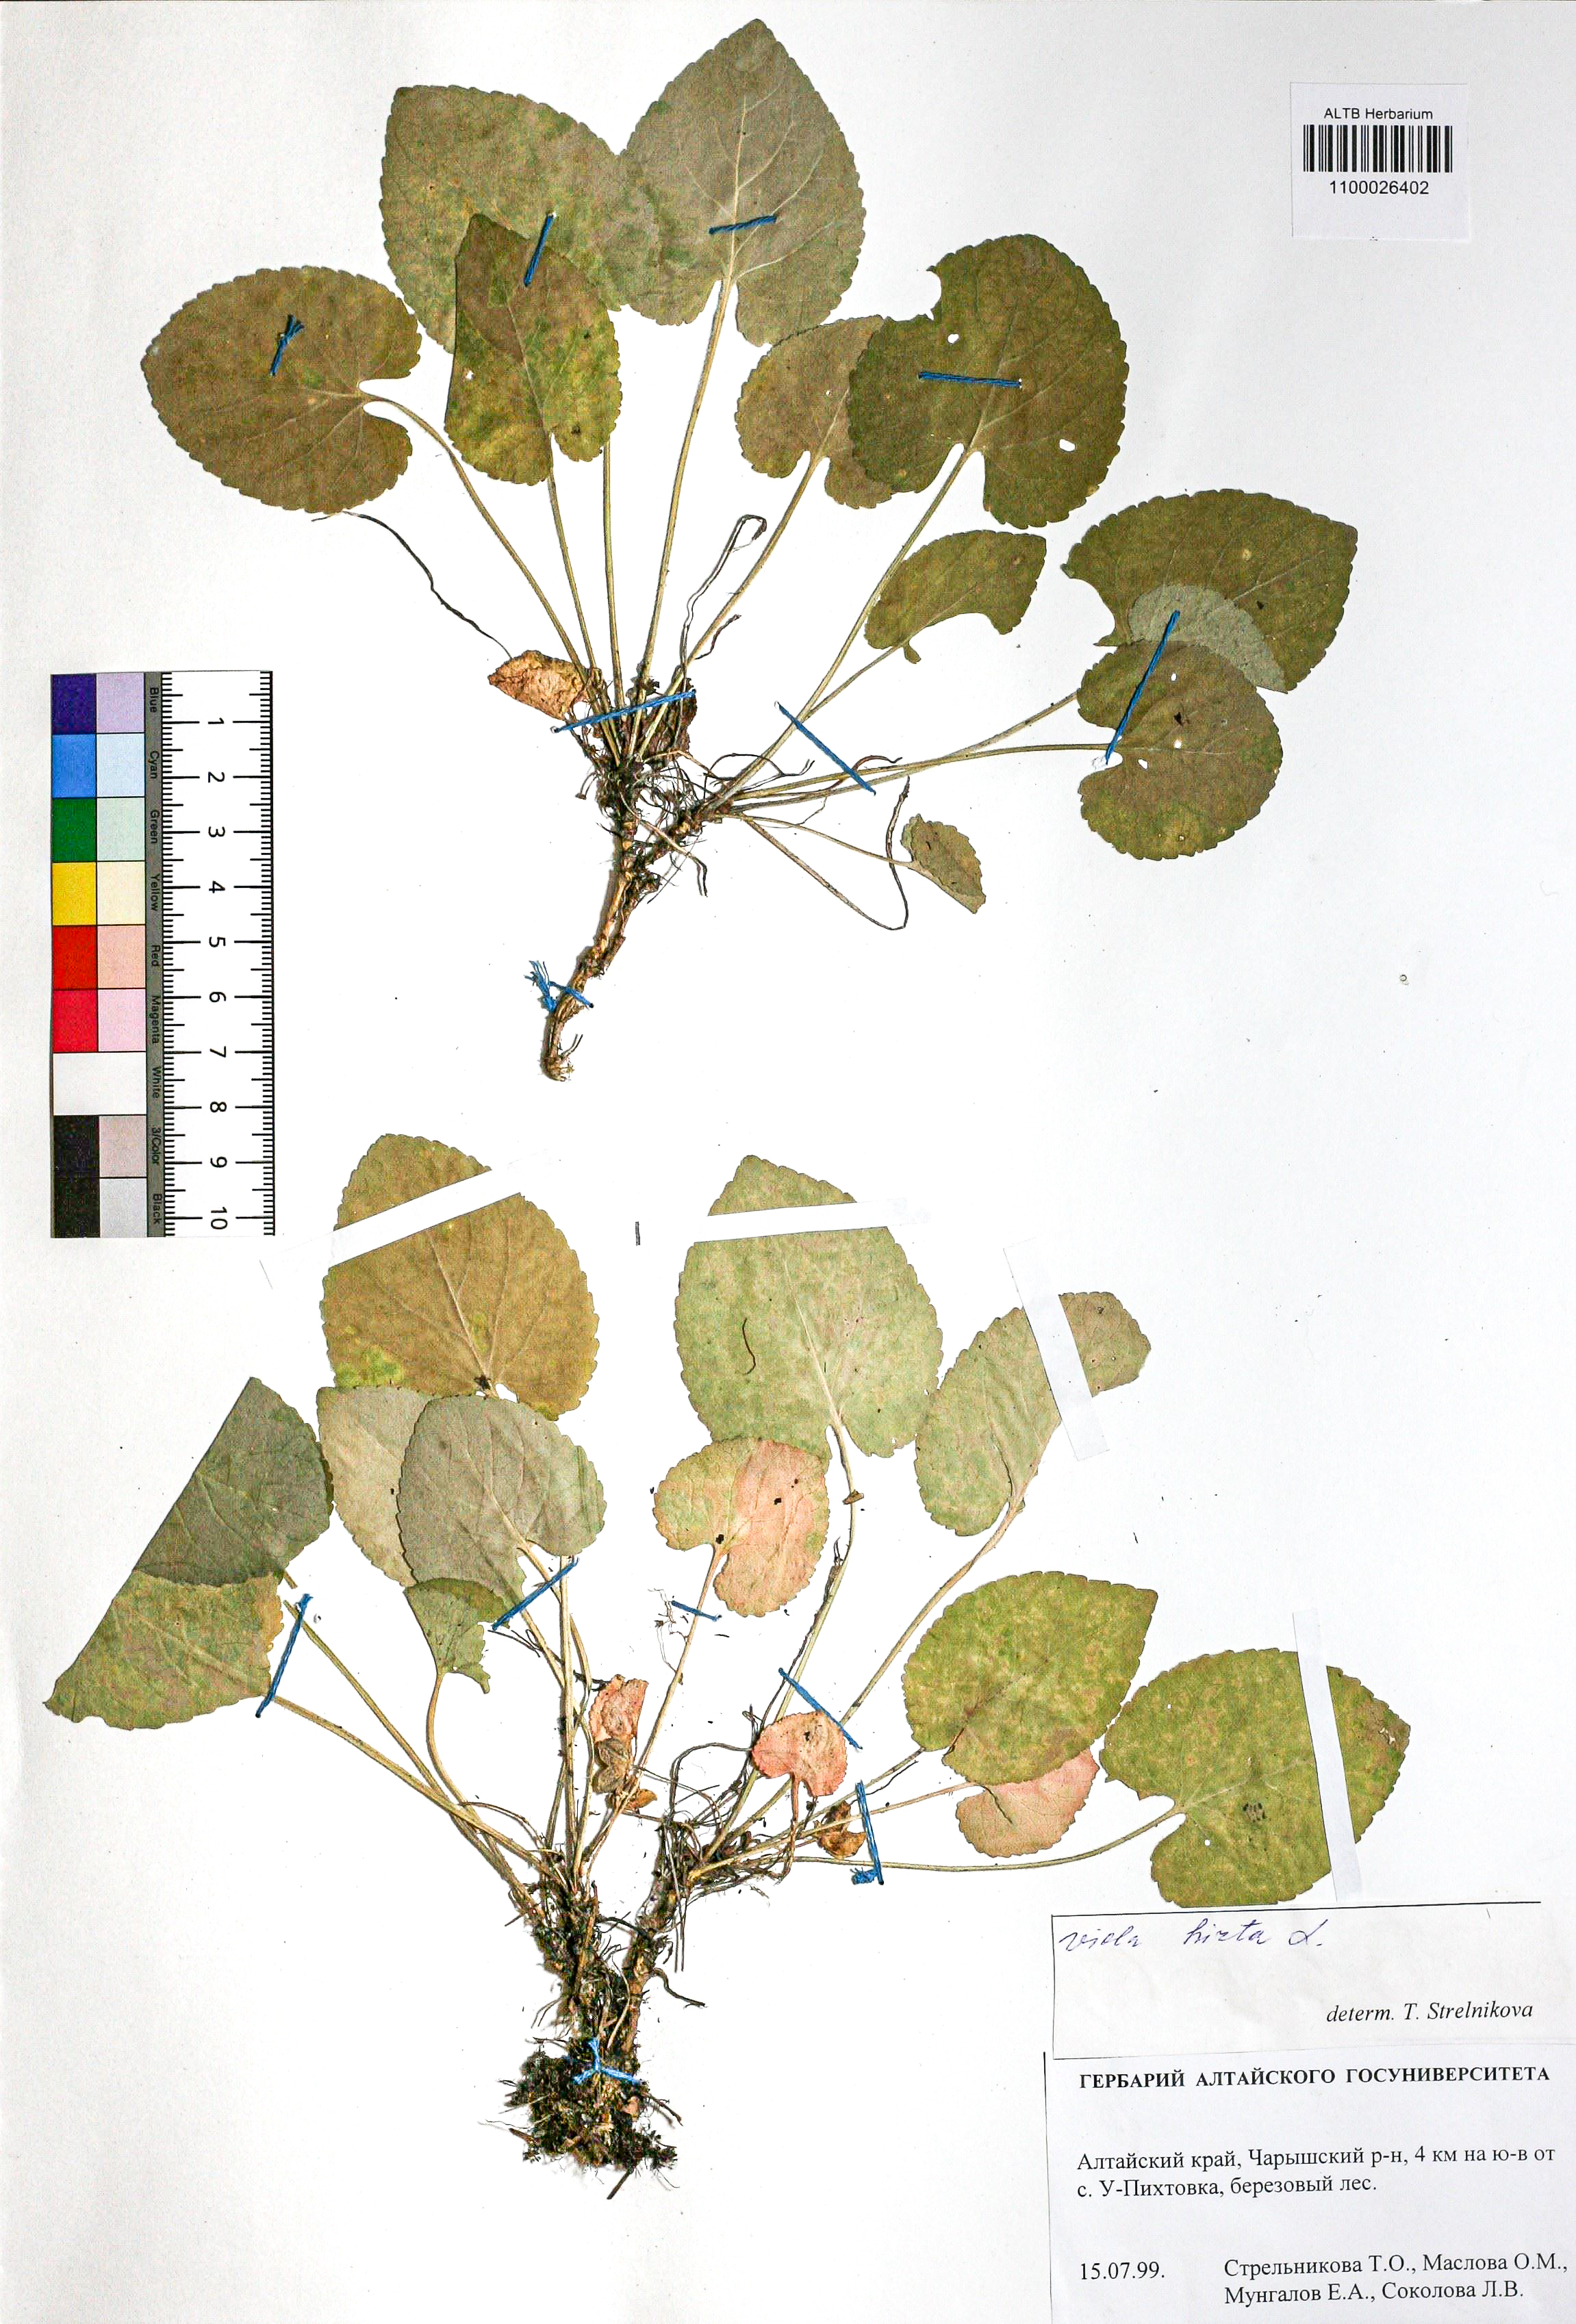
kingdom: Plantae
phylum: Tracheophyta
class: Magnoliopsida
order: Malpighiales
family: Violaceae
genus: Viola
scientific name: Viola hirta
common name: Hairy violet
